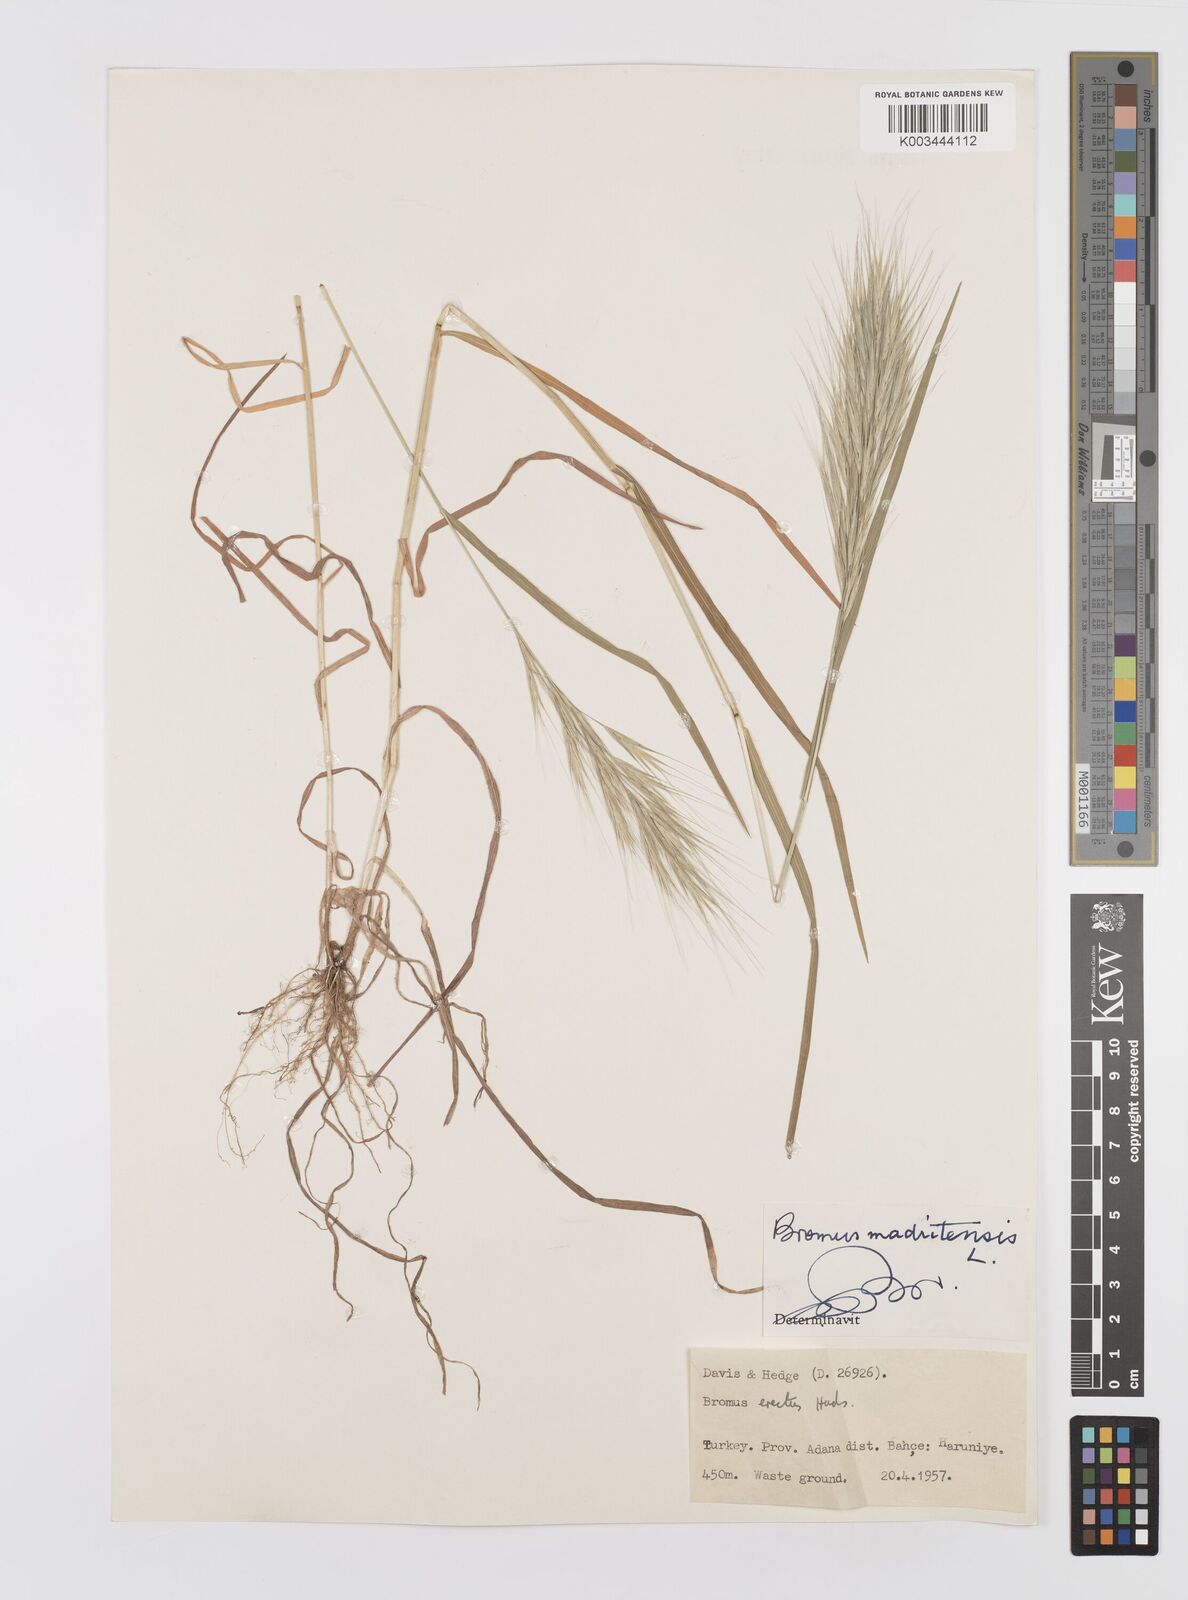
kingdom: Plantae
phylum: Tracheophyta
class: Liliopsida
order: Poales
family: Poaceae
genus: Bromus
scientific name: Bromus madritensis
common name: Compact brome
